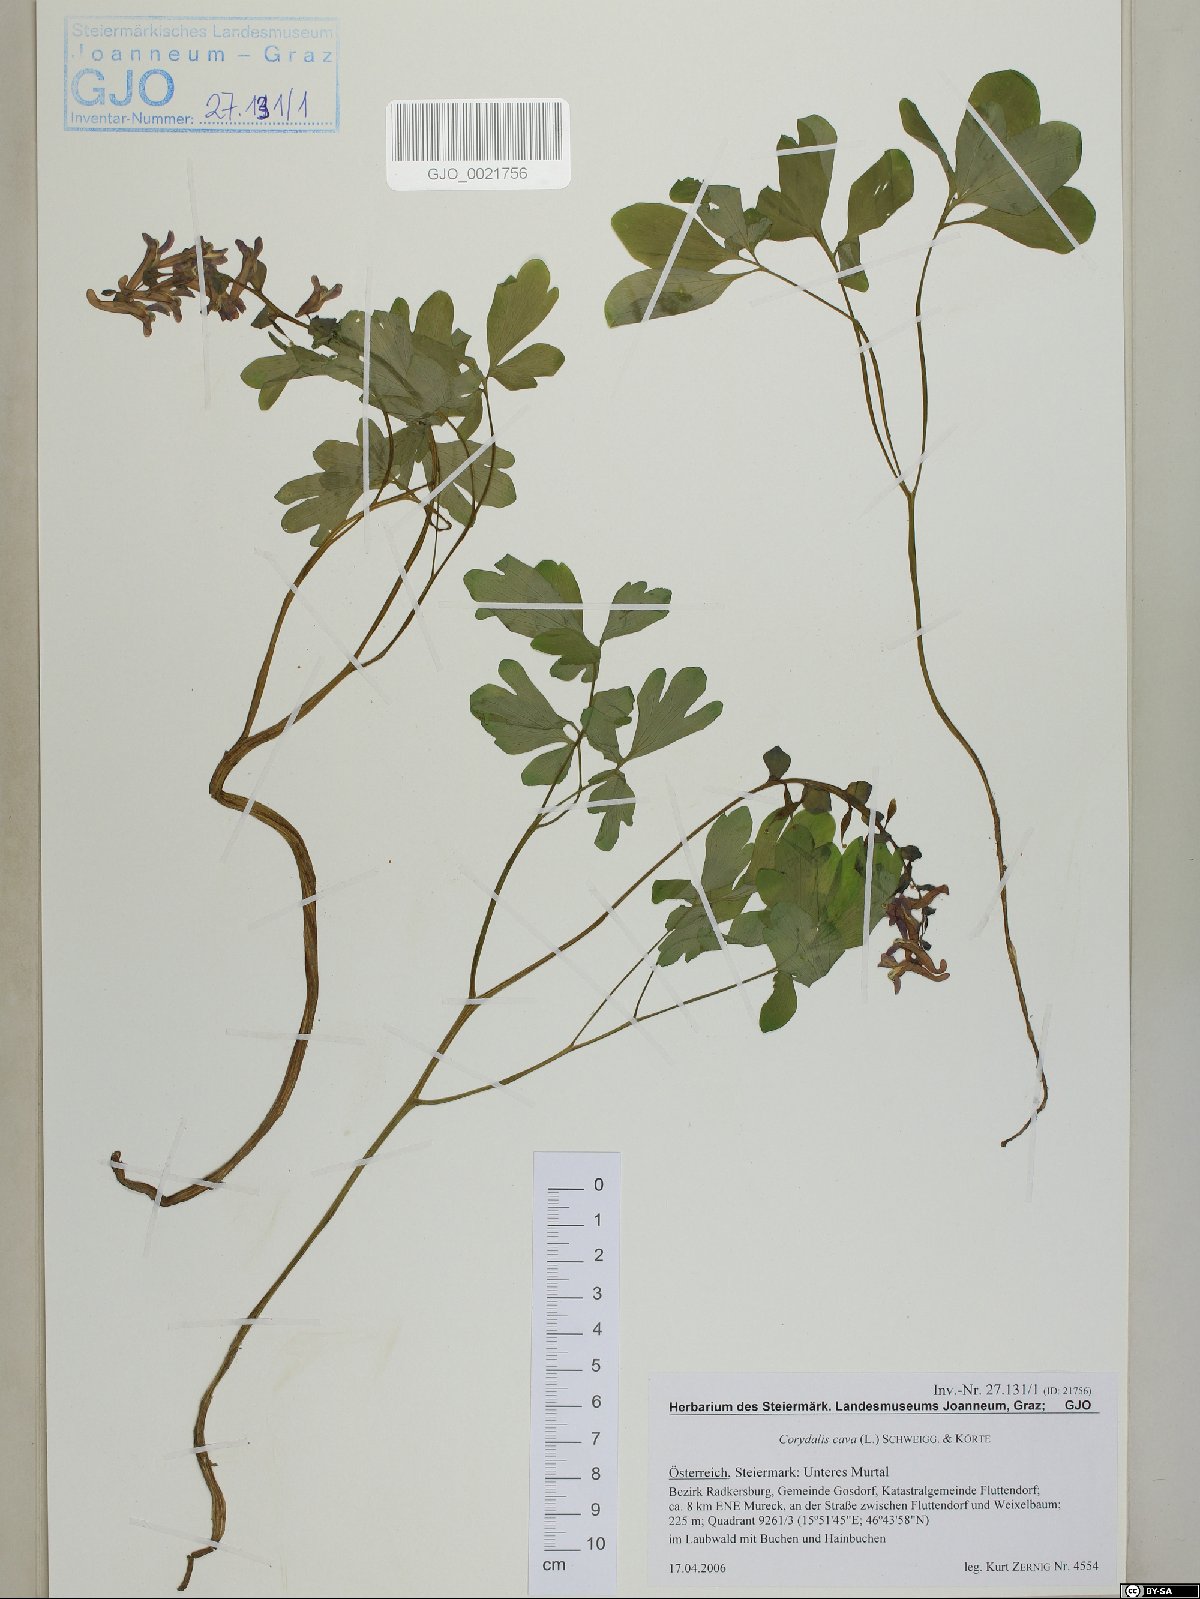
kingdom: Plantae
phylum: Tracheophyta
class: Magnoliopsida
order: Ranunculales
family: Papaveraceae
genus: Corydalis
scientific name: Corydalis cava
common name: Hollowroot
